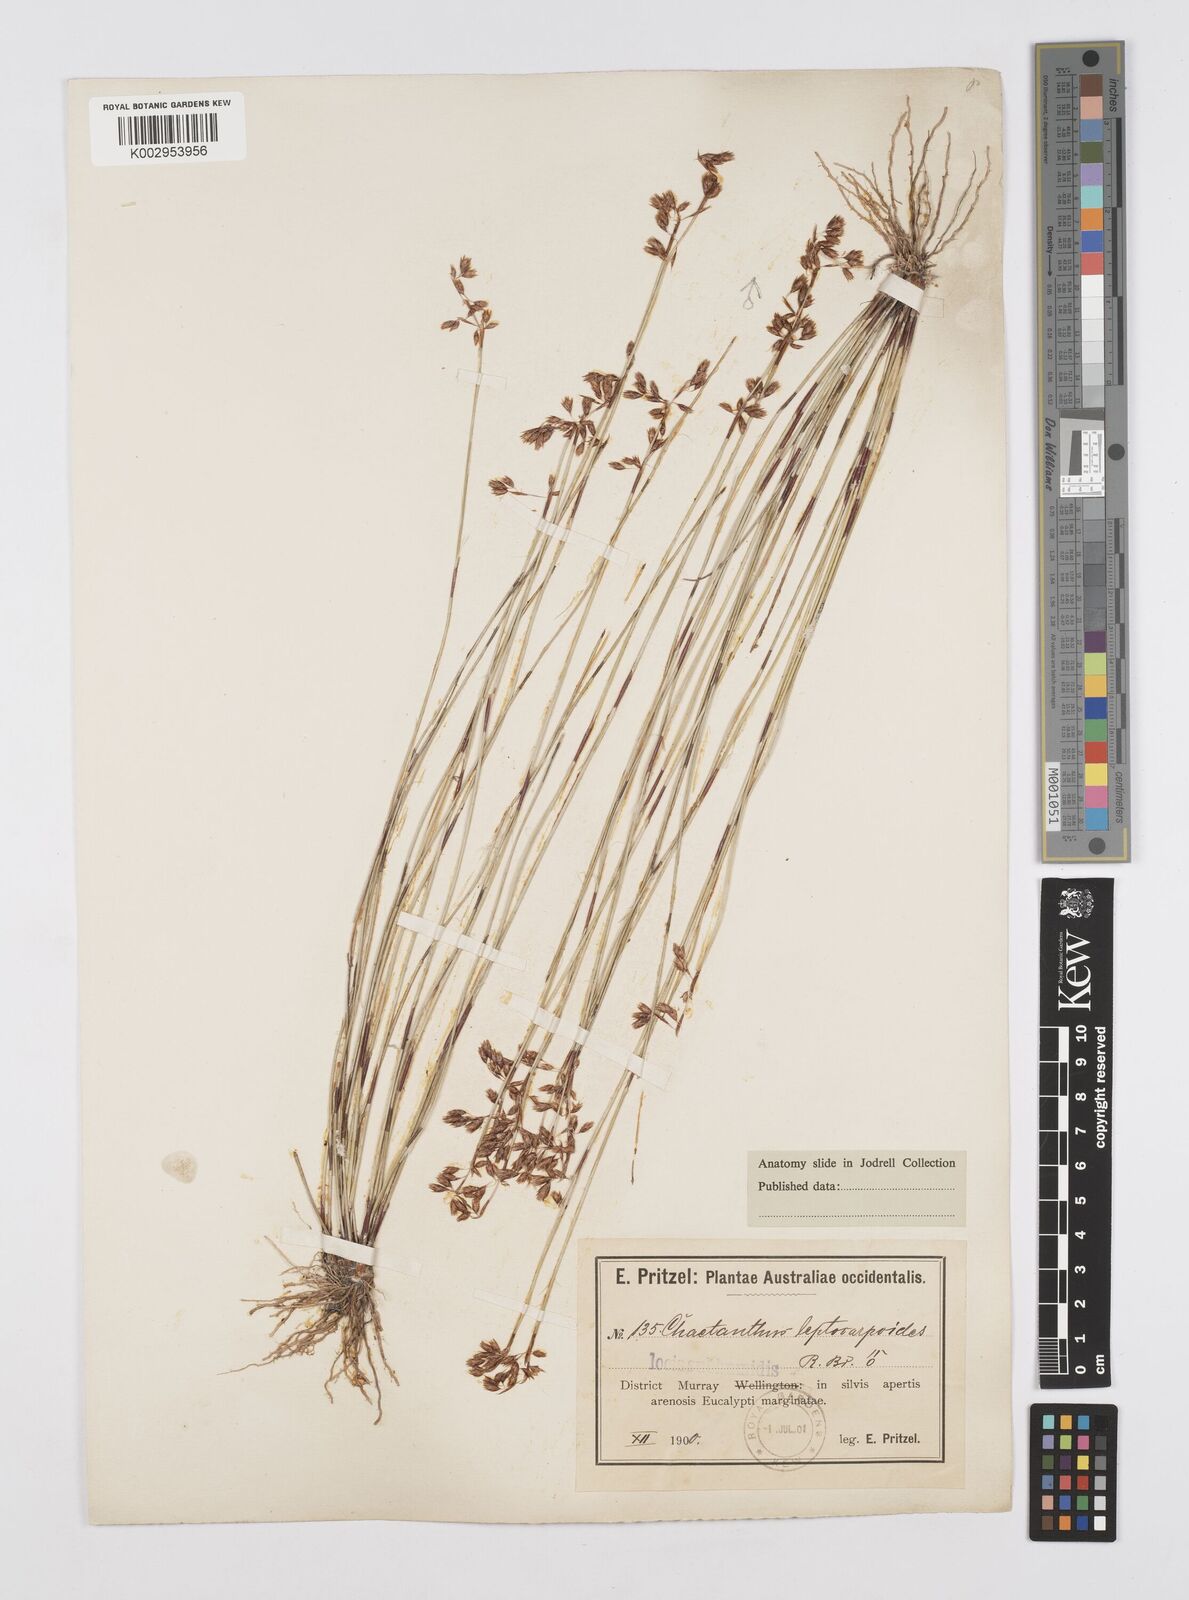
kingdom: Plantae
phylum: Tracheophyta
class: Liliopsida
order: Poales
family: Restionaceae
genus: Chaetanthus
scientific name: Chaetanthus leptocarpoides
